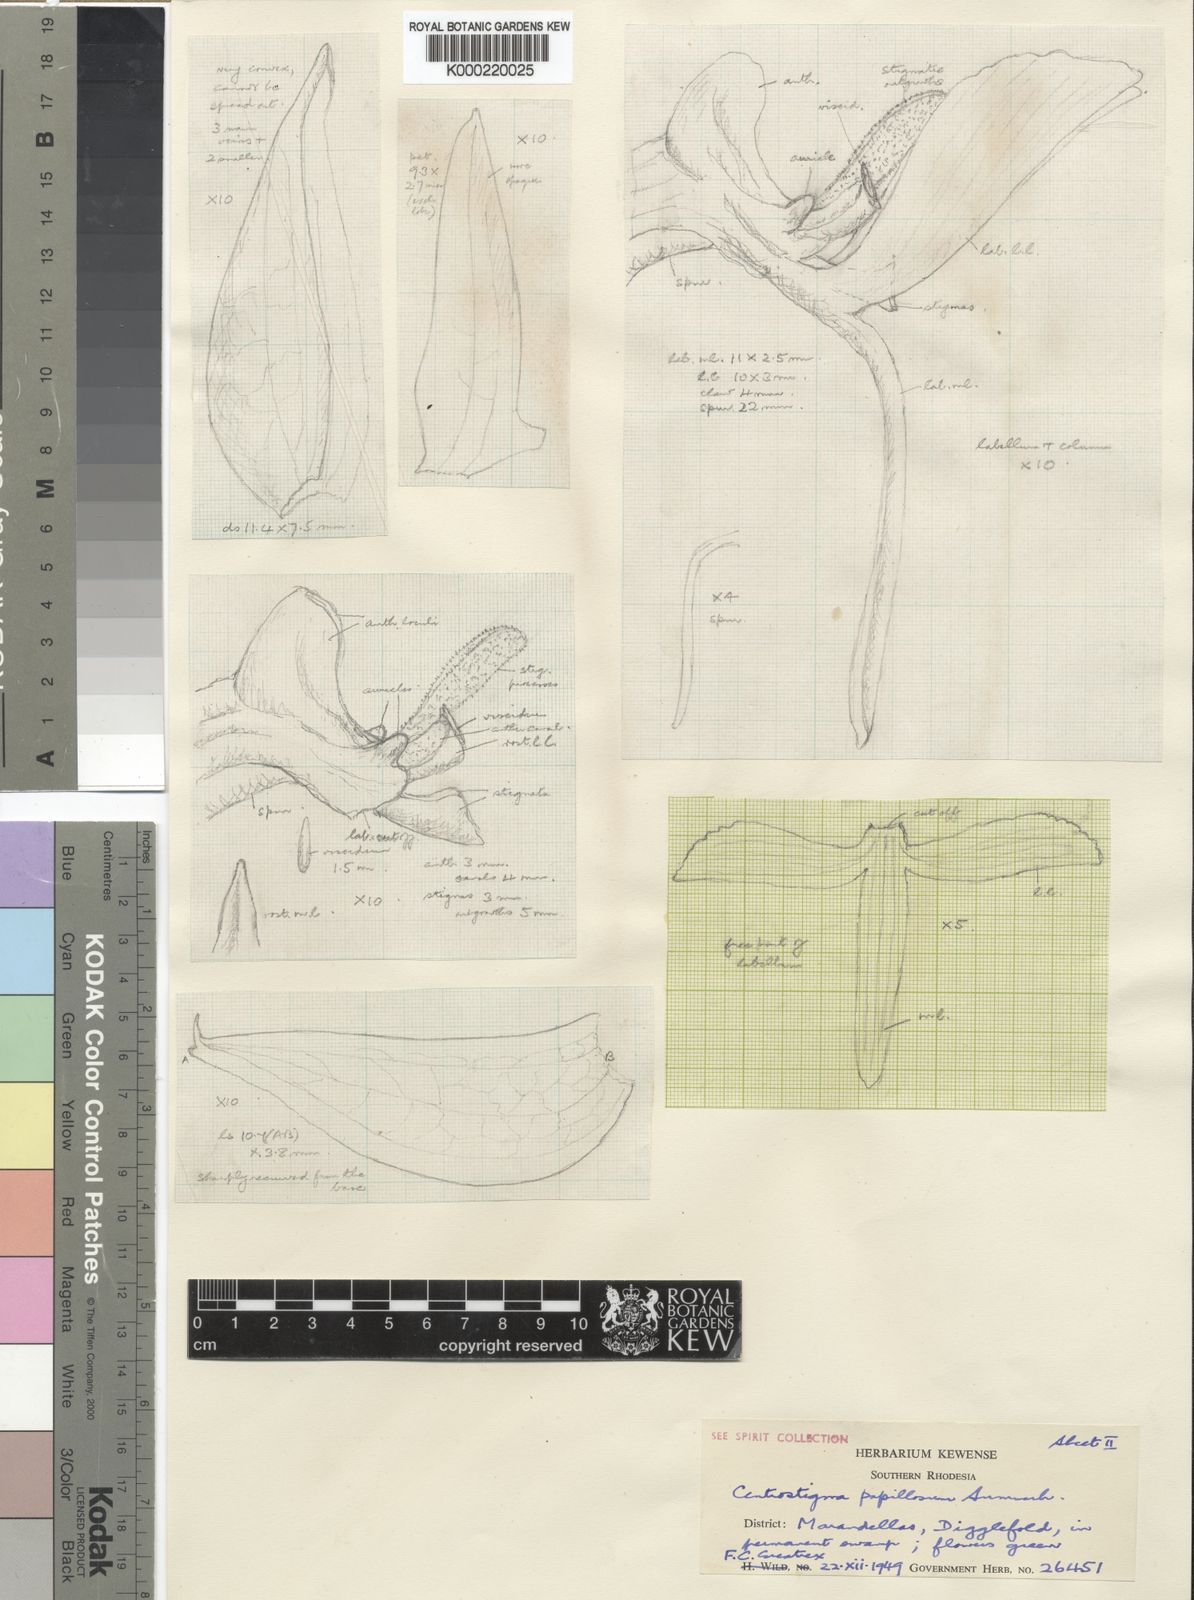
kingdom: Plantae
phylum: Tracheophyta
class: Liliopsida
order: Asparagales
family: Orchidaceae
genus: Centrostigma
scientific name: Centrostigma papillosum
